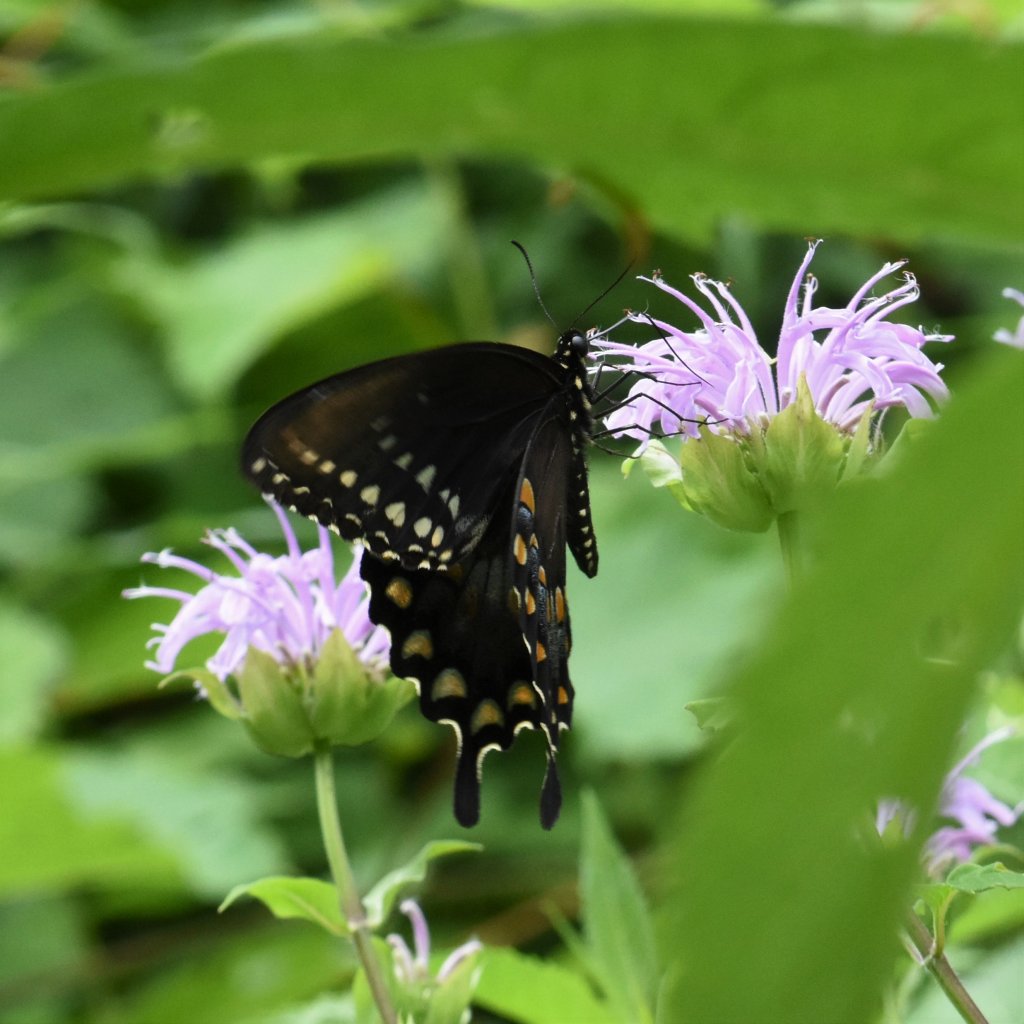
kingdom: Animalia
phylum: Arthropoda
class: Insecta
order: Lepidoptera
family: Papilionidae
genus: Pterourus
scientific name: Pterourus troilus
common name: Spicebush Swallowtail
